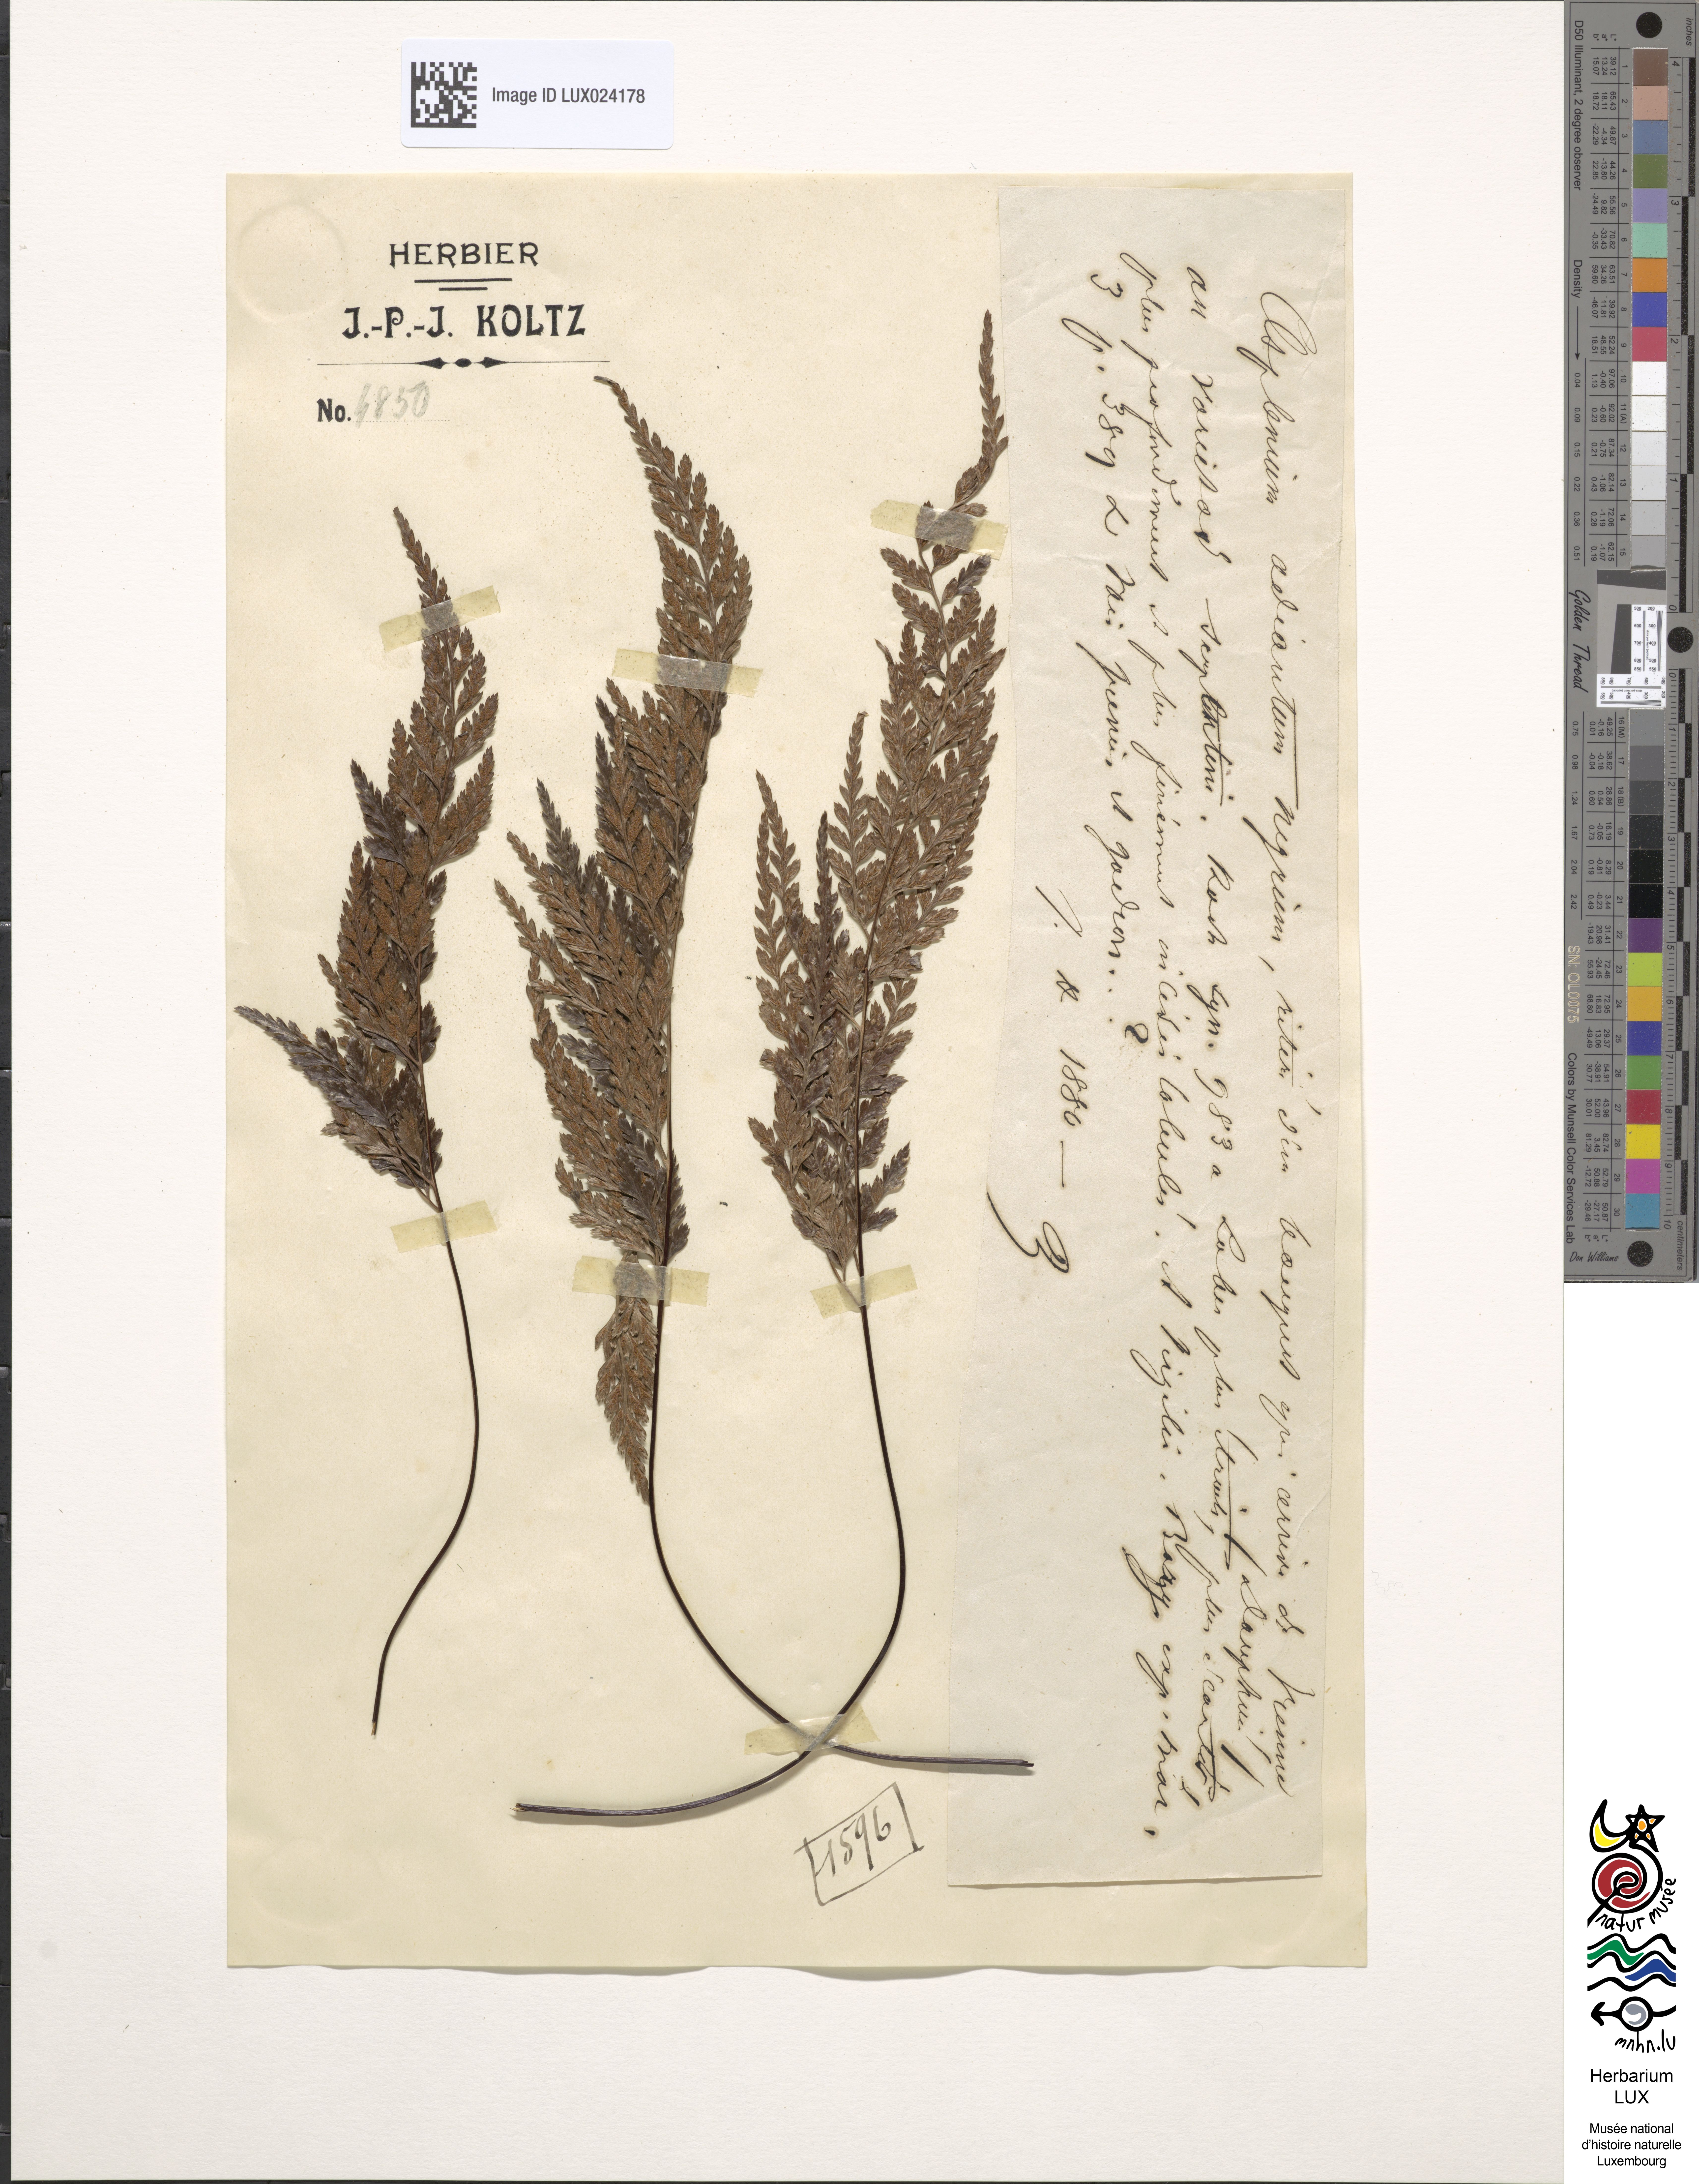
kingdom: Plantae
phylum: Tracheophyta
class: Polypodiopsida
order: Polypodiales
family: Aspleniaceae
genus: Asplenium
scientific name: Asplenium adiantum-nigrum
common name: Black spleenwort
